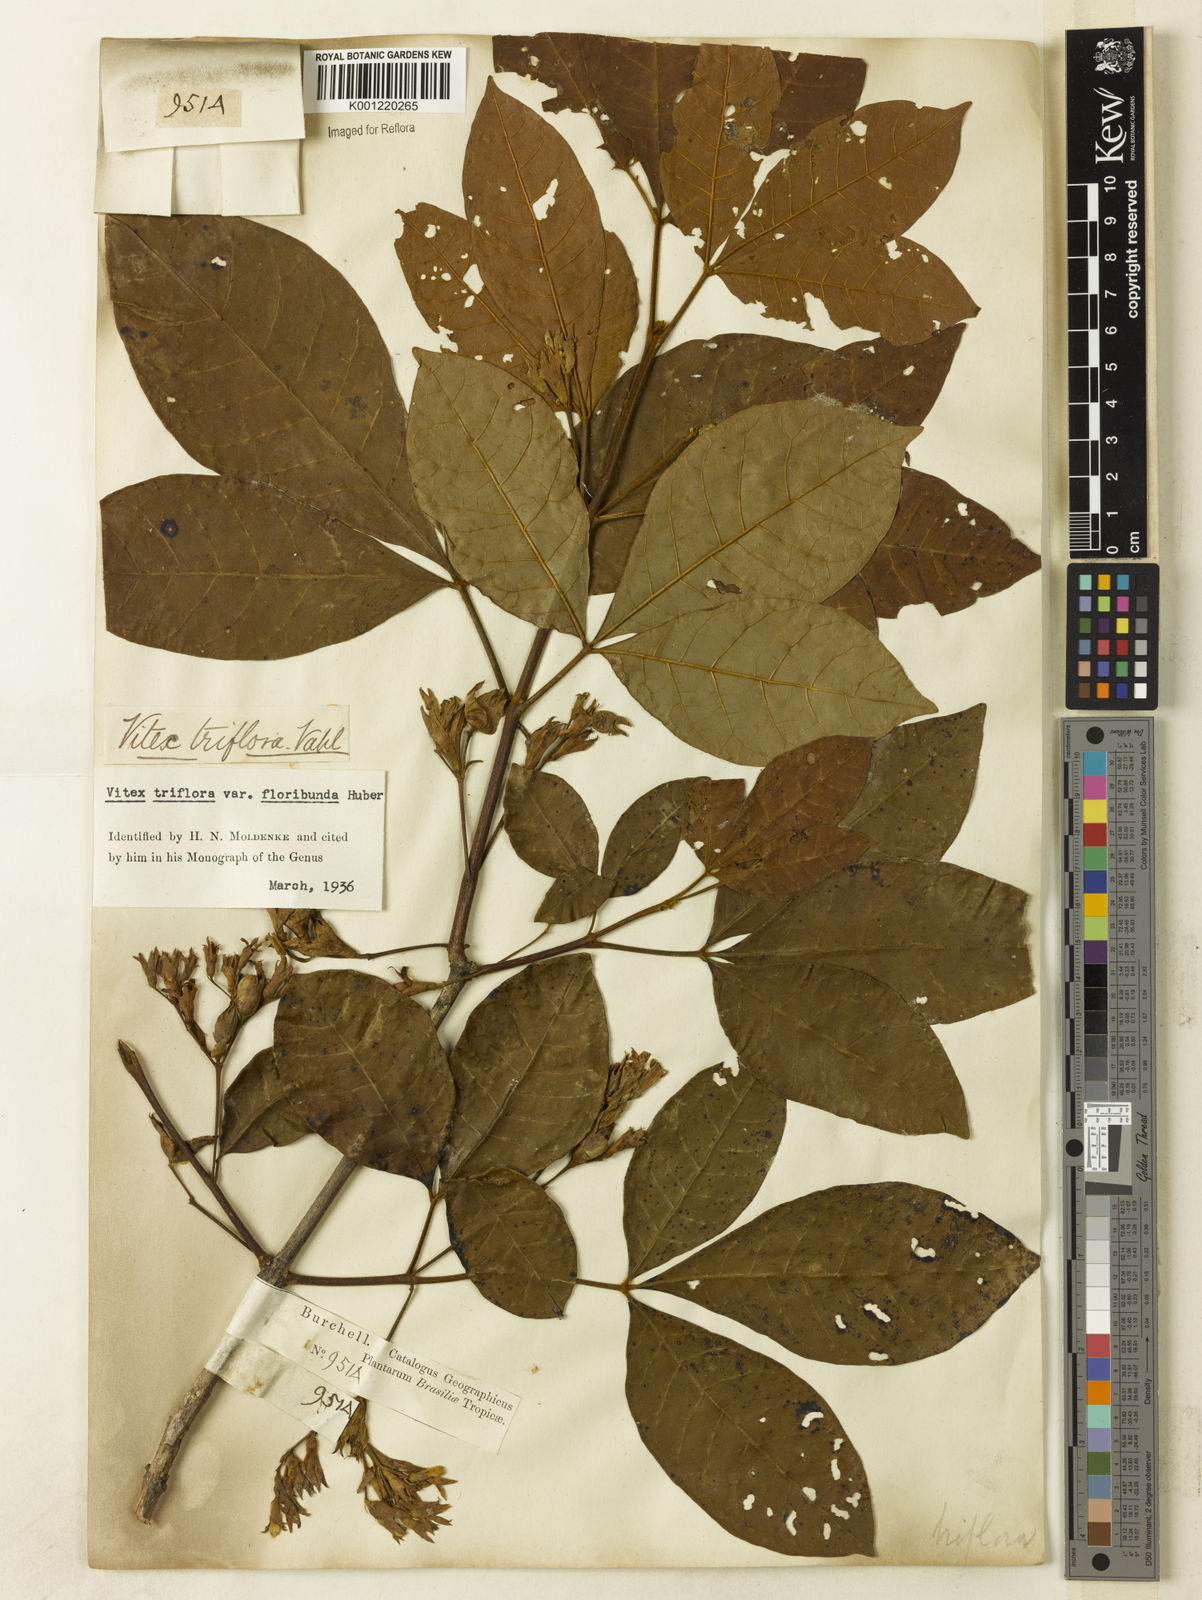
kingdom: Plantae
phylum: Tracheophyta
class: Magnoliopsida
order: Lamiales
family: Lamiaceae
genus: Vitex
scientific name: Vitex triflora
